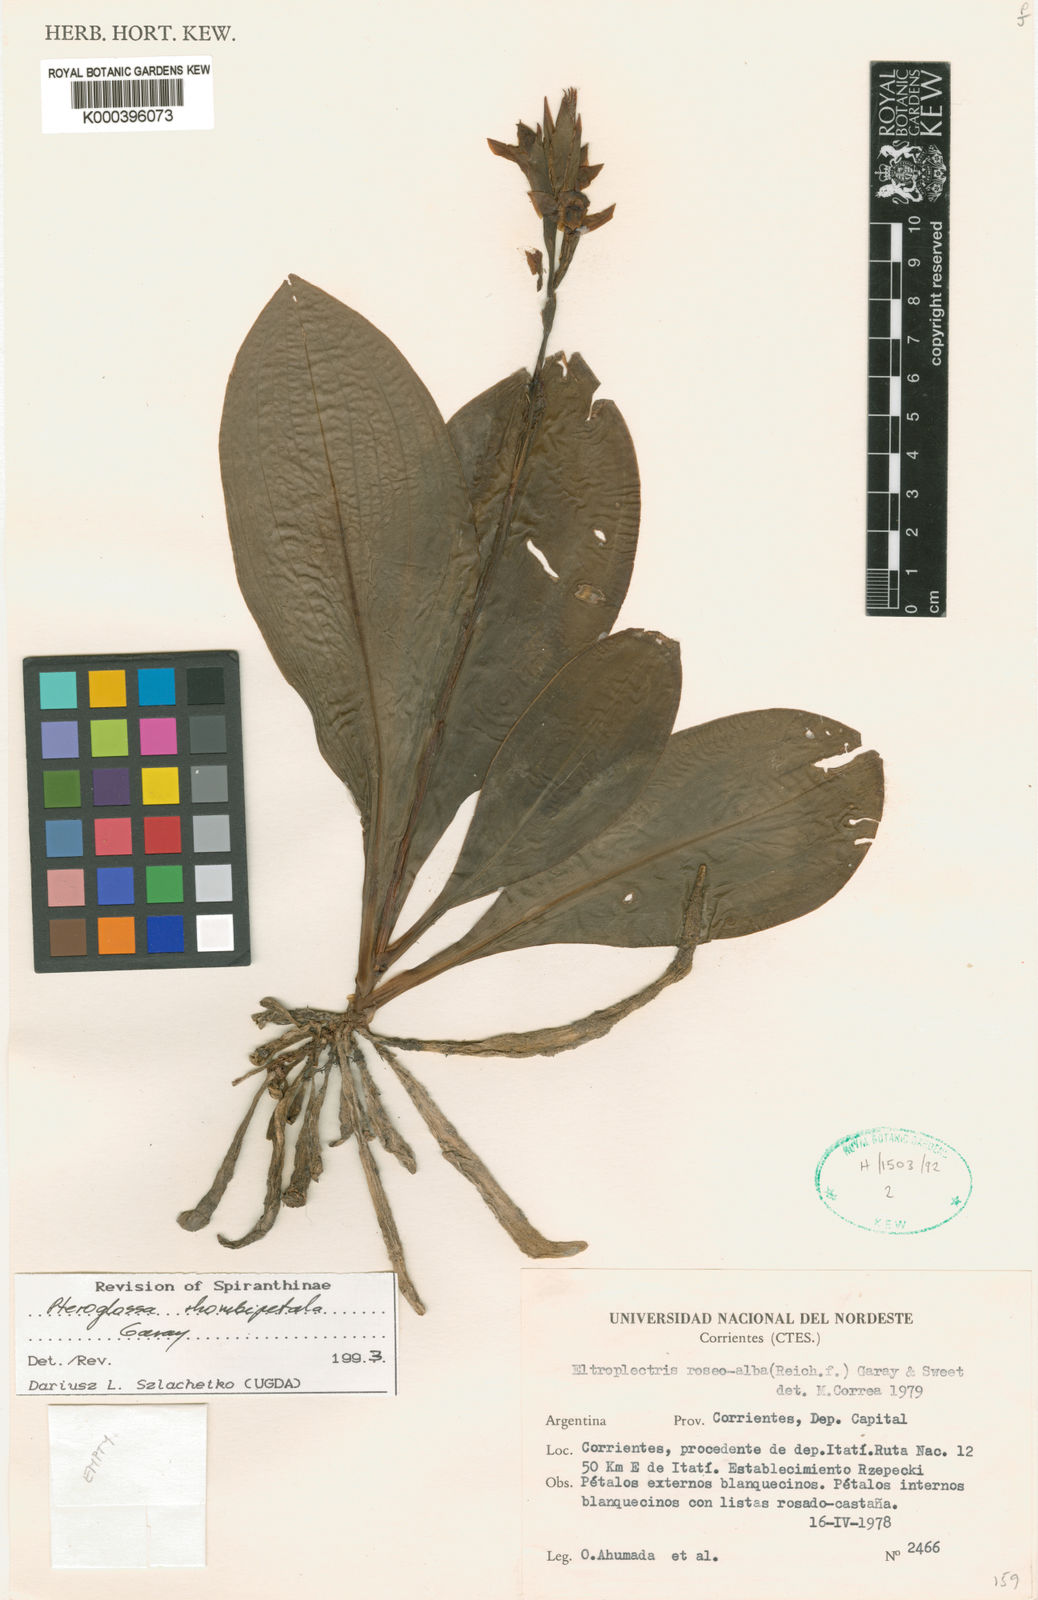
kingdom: Plantae
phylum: Tracheophyta
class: Liliopsida
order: Asparagales
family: Orchidaceae
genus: Pteroglossa
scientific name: Pteroglossa rhombipetala
